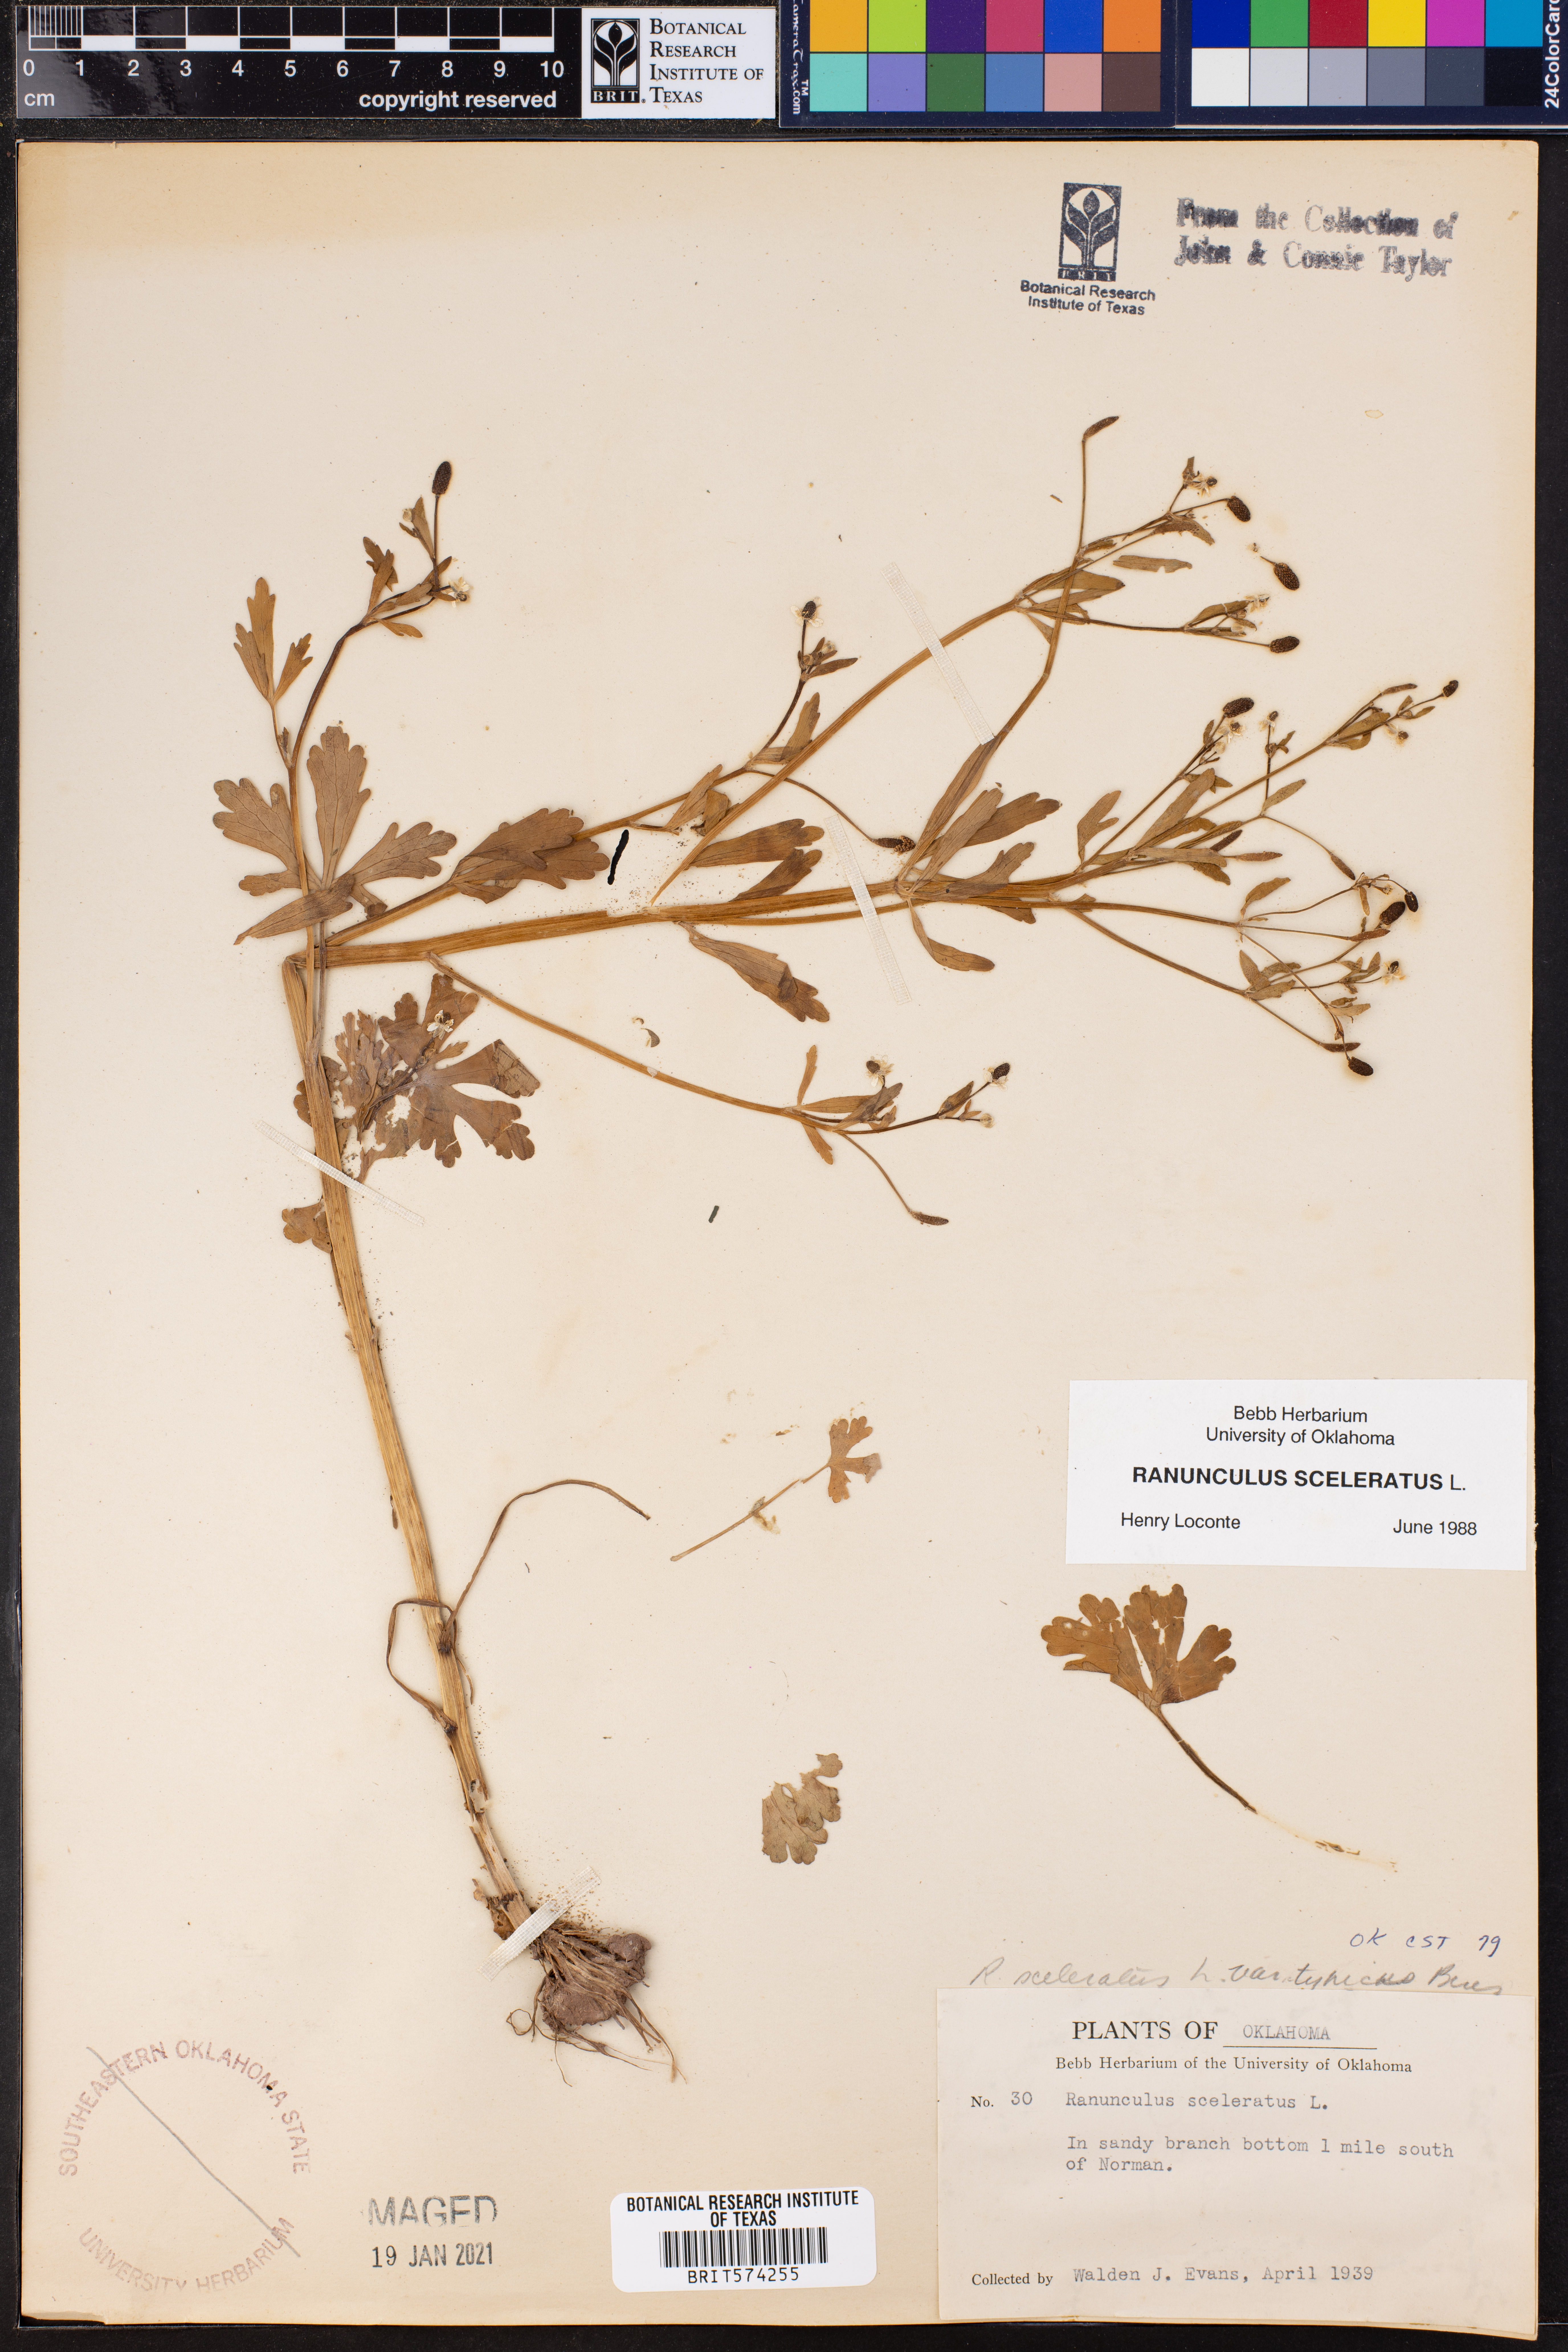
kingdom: Plantae
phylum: Tracheophyta
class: Magnoliopsida
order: Ranunculales
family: Ranunculaceae
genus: Ranunculus
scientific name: Ranunculus sceleratus
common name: Celery-leaved buttercup
